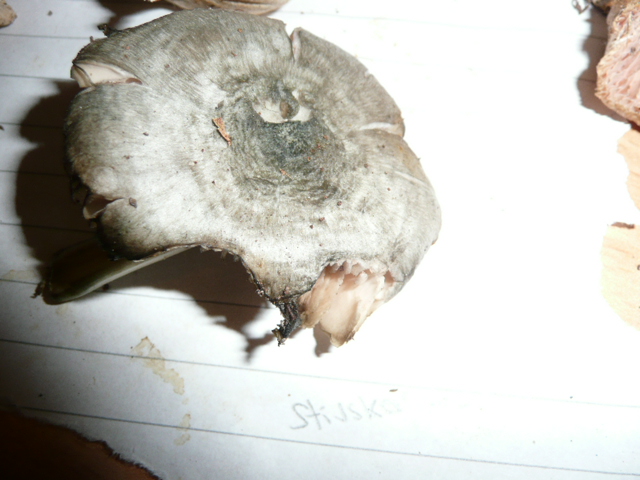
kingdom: Fungi
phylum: Basidiomycota
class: Agaricomycetes
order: Agaricales
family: Pluteaceae
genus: Pluteus
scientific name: Pluteus salicinus
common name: stiv skærmhat
